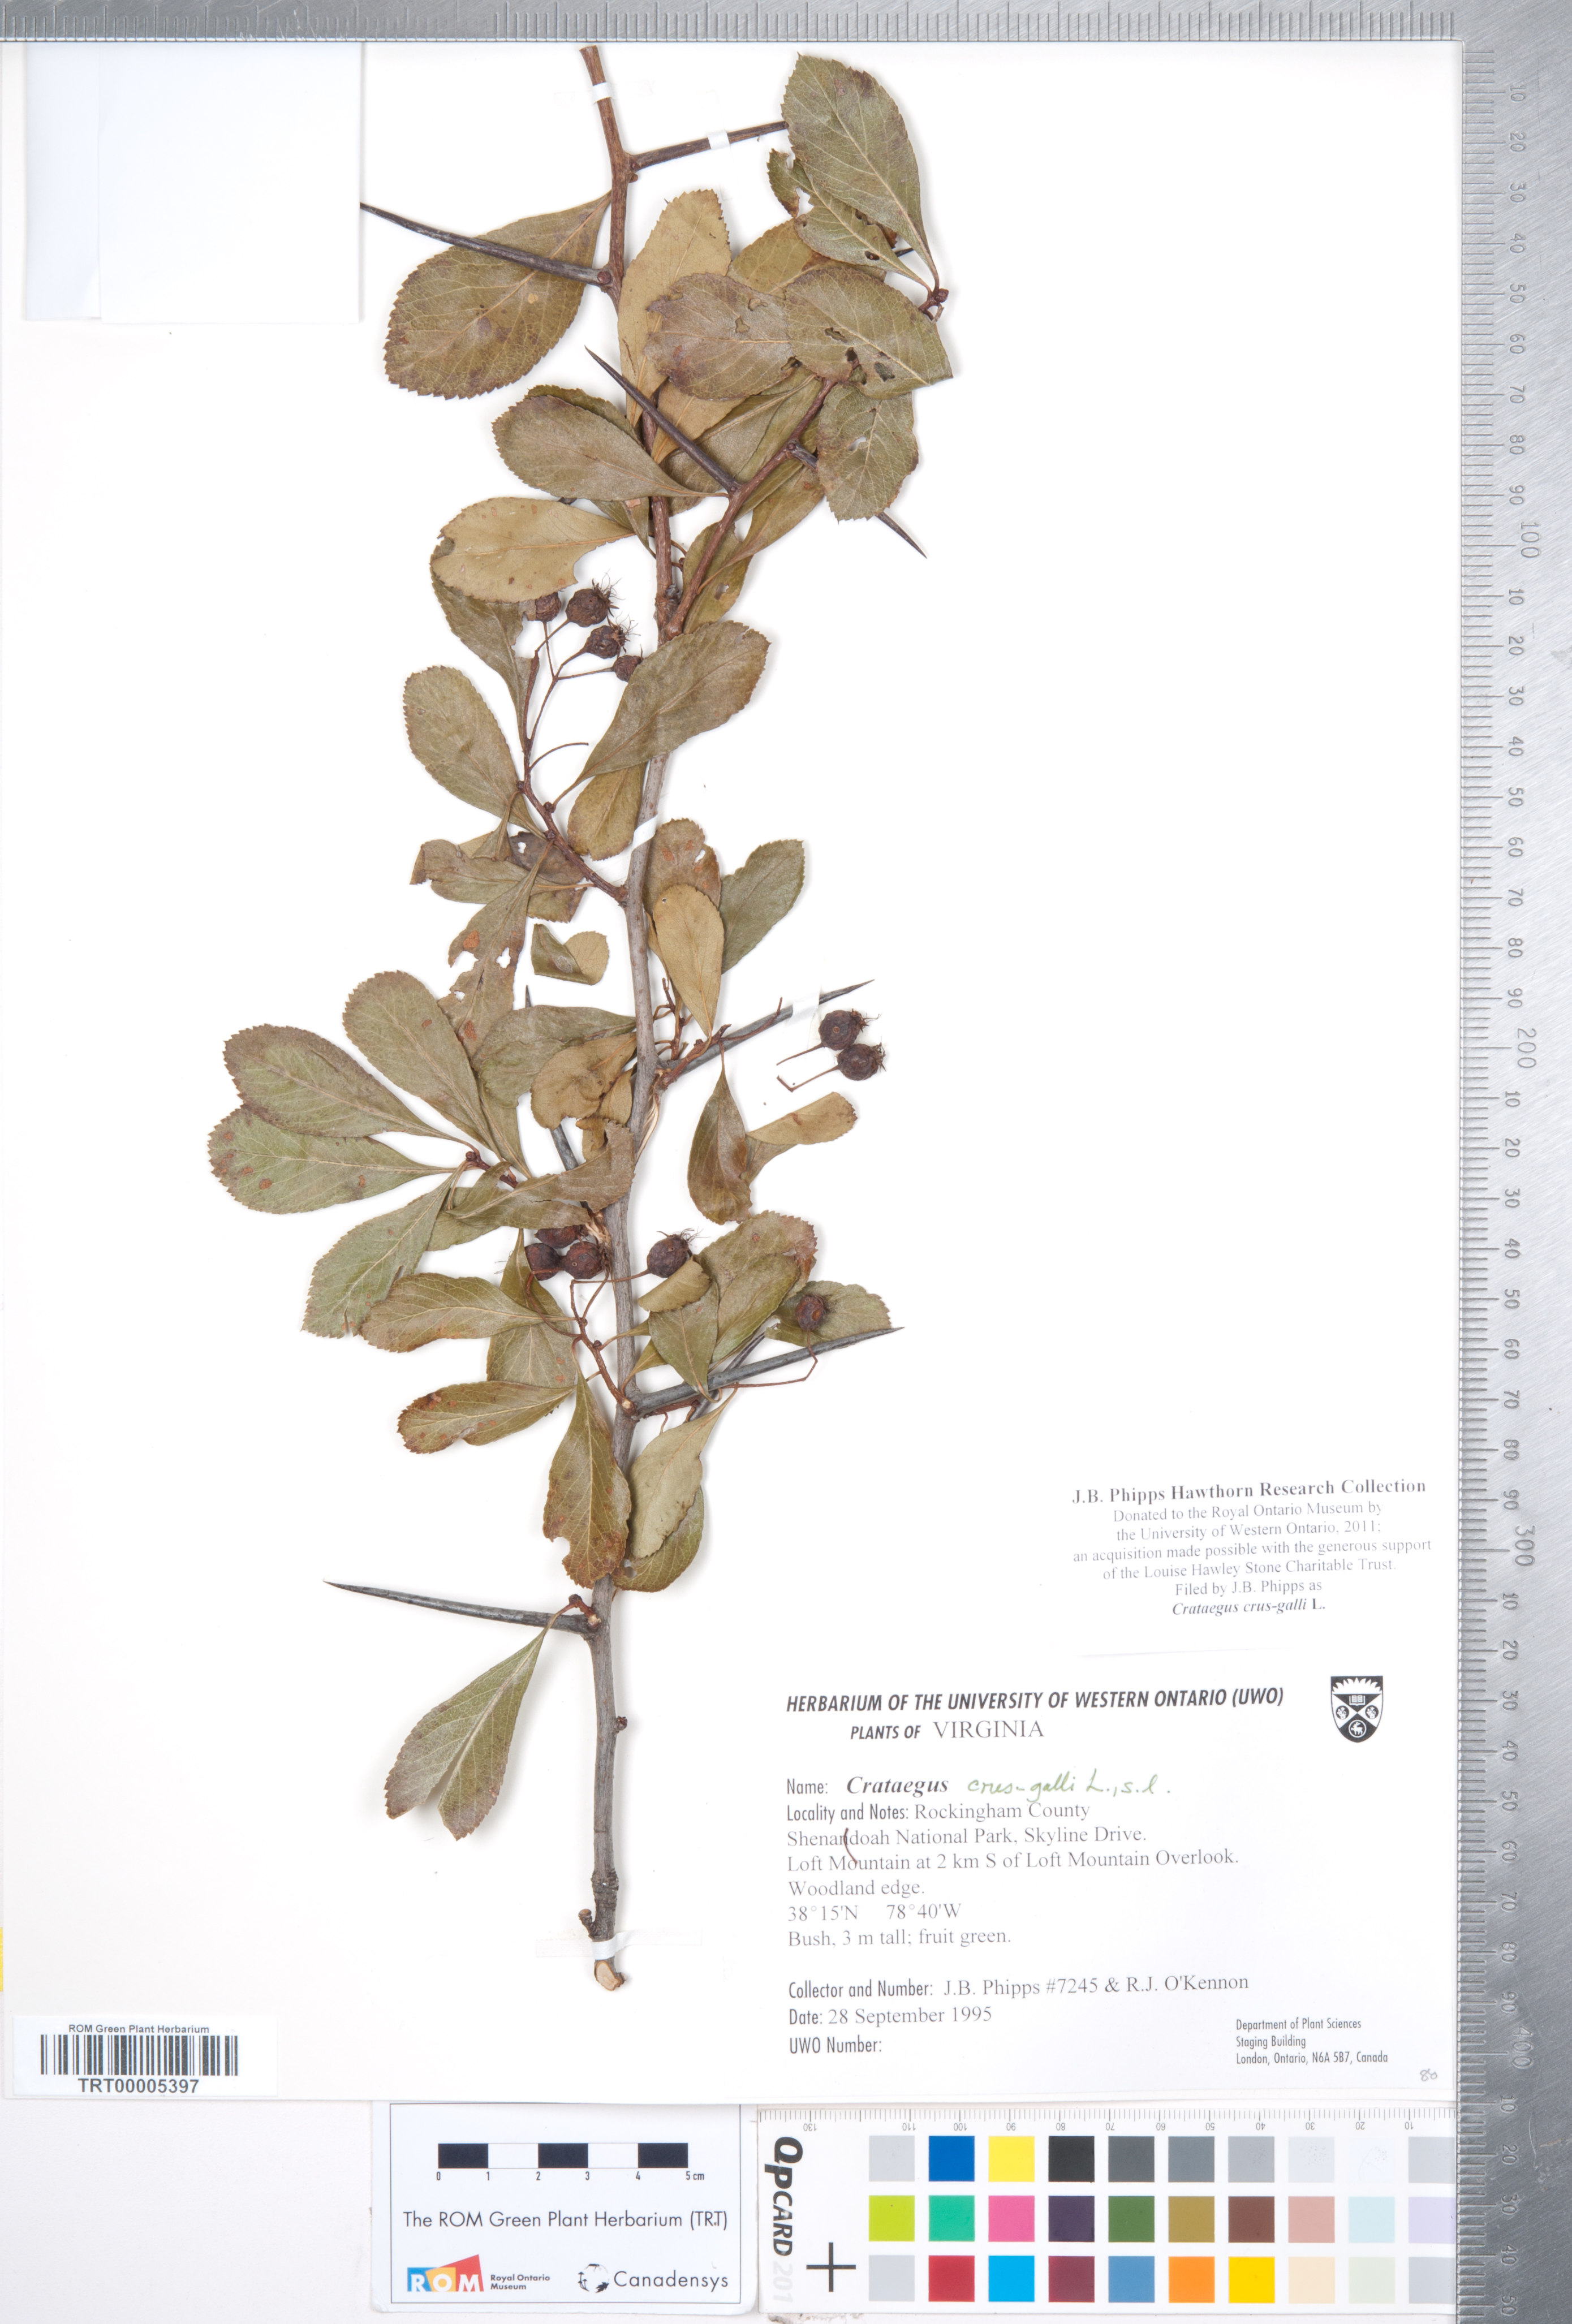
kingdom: Plantae
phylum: Tracheophyta
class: Magnoliopsida
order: Rosales
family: Rosaceae
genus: Crataegus
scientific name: Crataegus crus-galli
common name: Cockspurthorn
